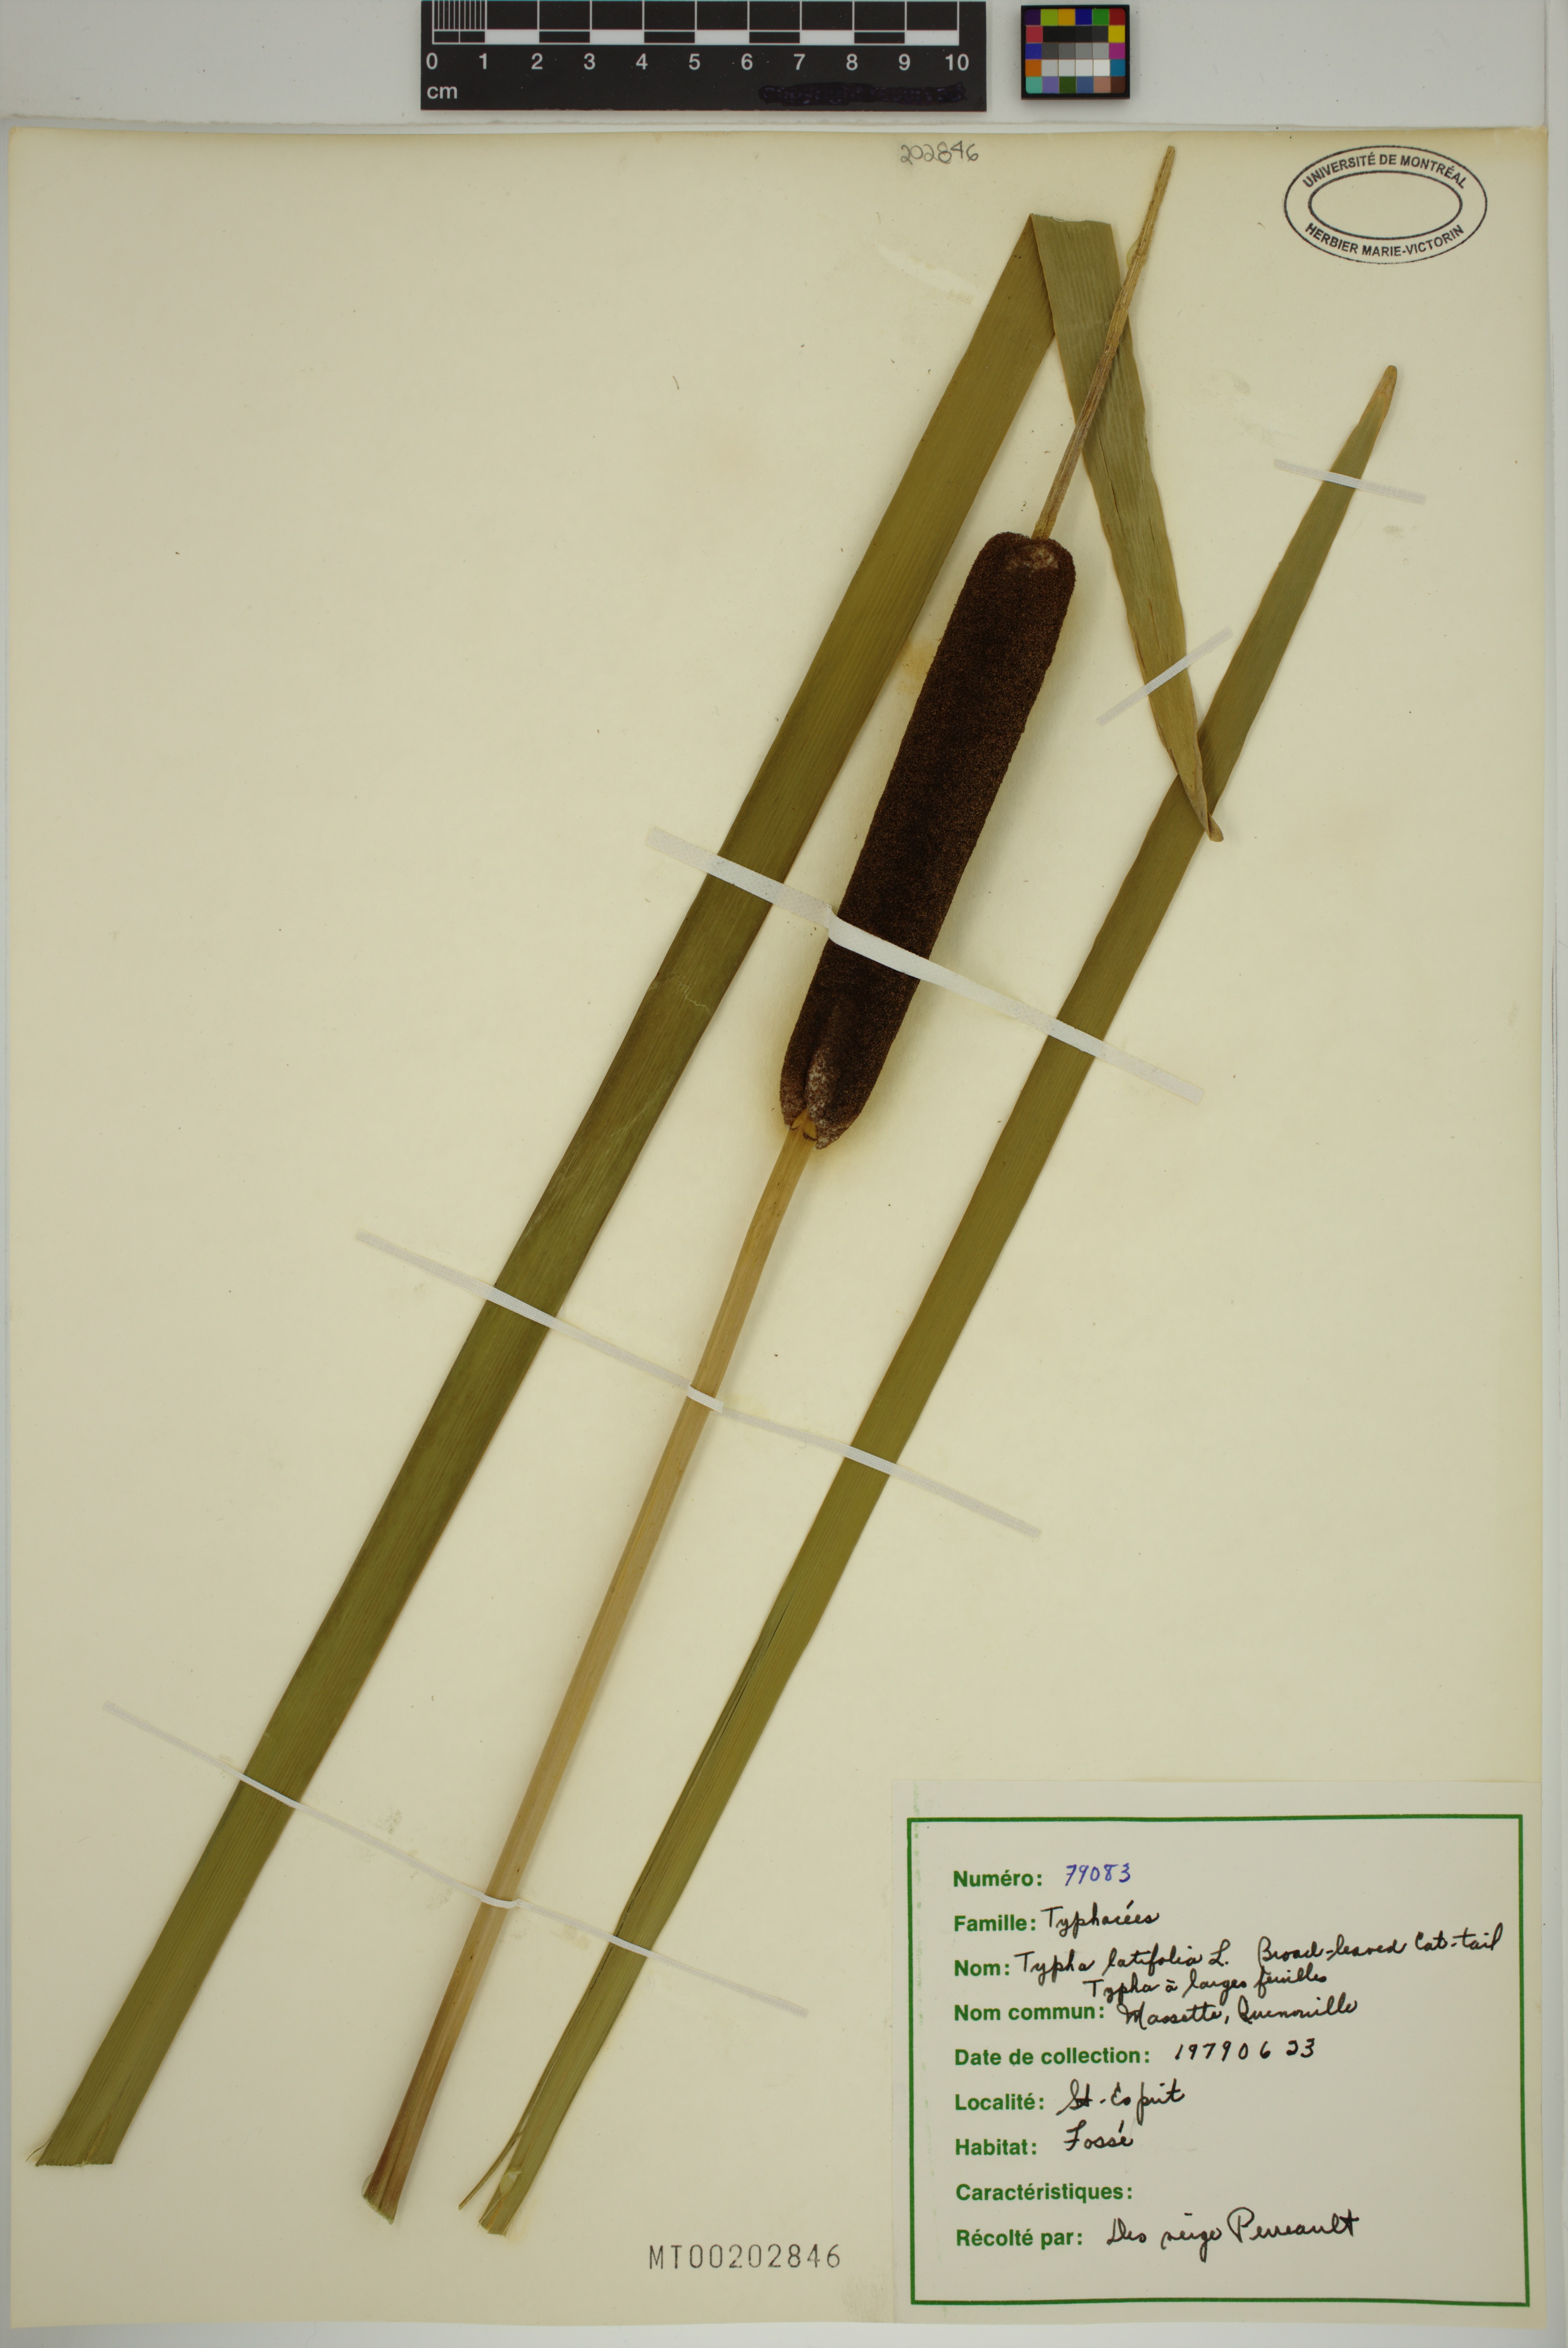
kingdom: Plantae
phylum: Tracheophyta
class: Liliopsida
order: Poales
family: Typhaceae
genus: Typha
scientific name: Typha latifolia
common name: Broadleaf cattail
